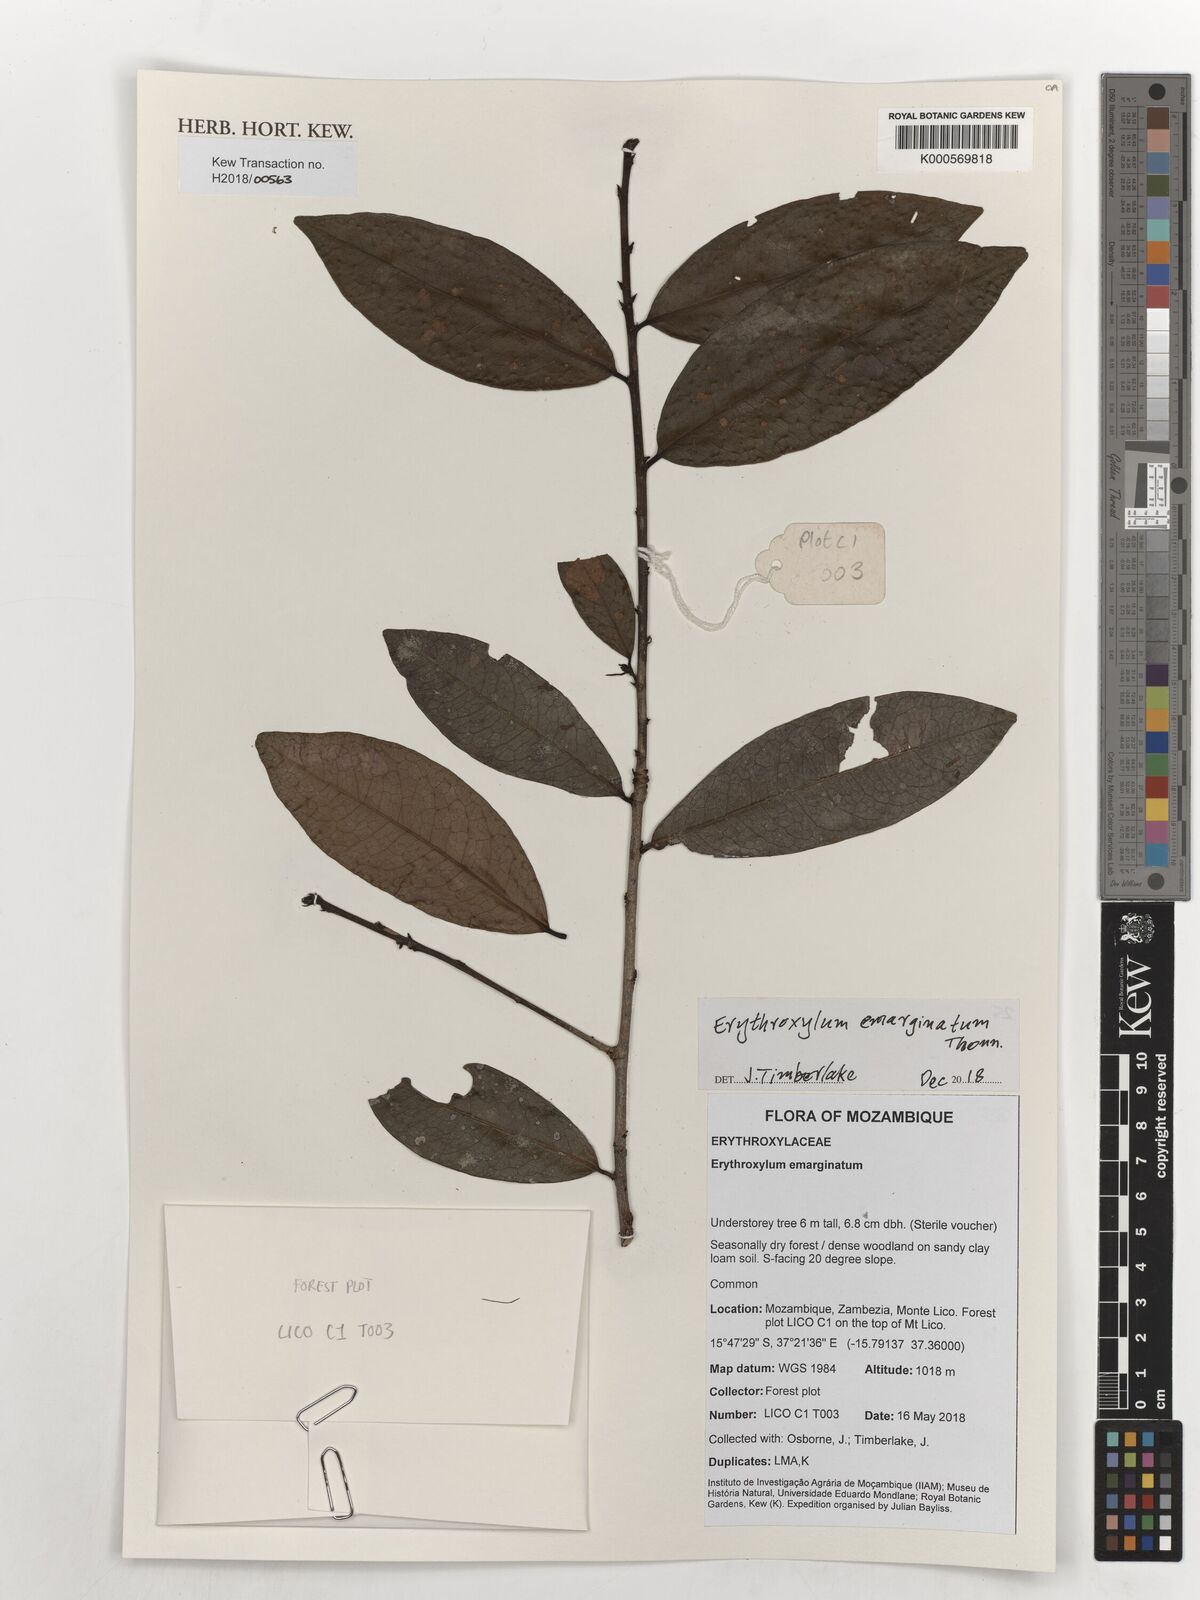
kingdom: Plantae
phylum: Tracheophyta
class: Magnoliopsida
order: Malpighiales
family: Erythroxylaceae
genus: Erythroxylum
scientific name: Erythroxylum emarginatum
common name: African coca-tree
